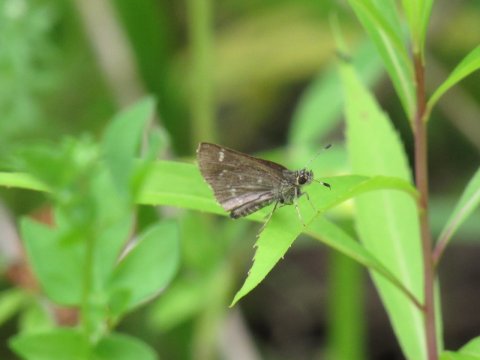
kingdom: Animalia
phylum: Arthropoda
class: Insecta
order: Lepidoptera
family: Hesperiidae
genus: Mastor
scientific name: Mastor hegon
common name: Pepper and Salt Skipper
